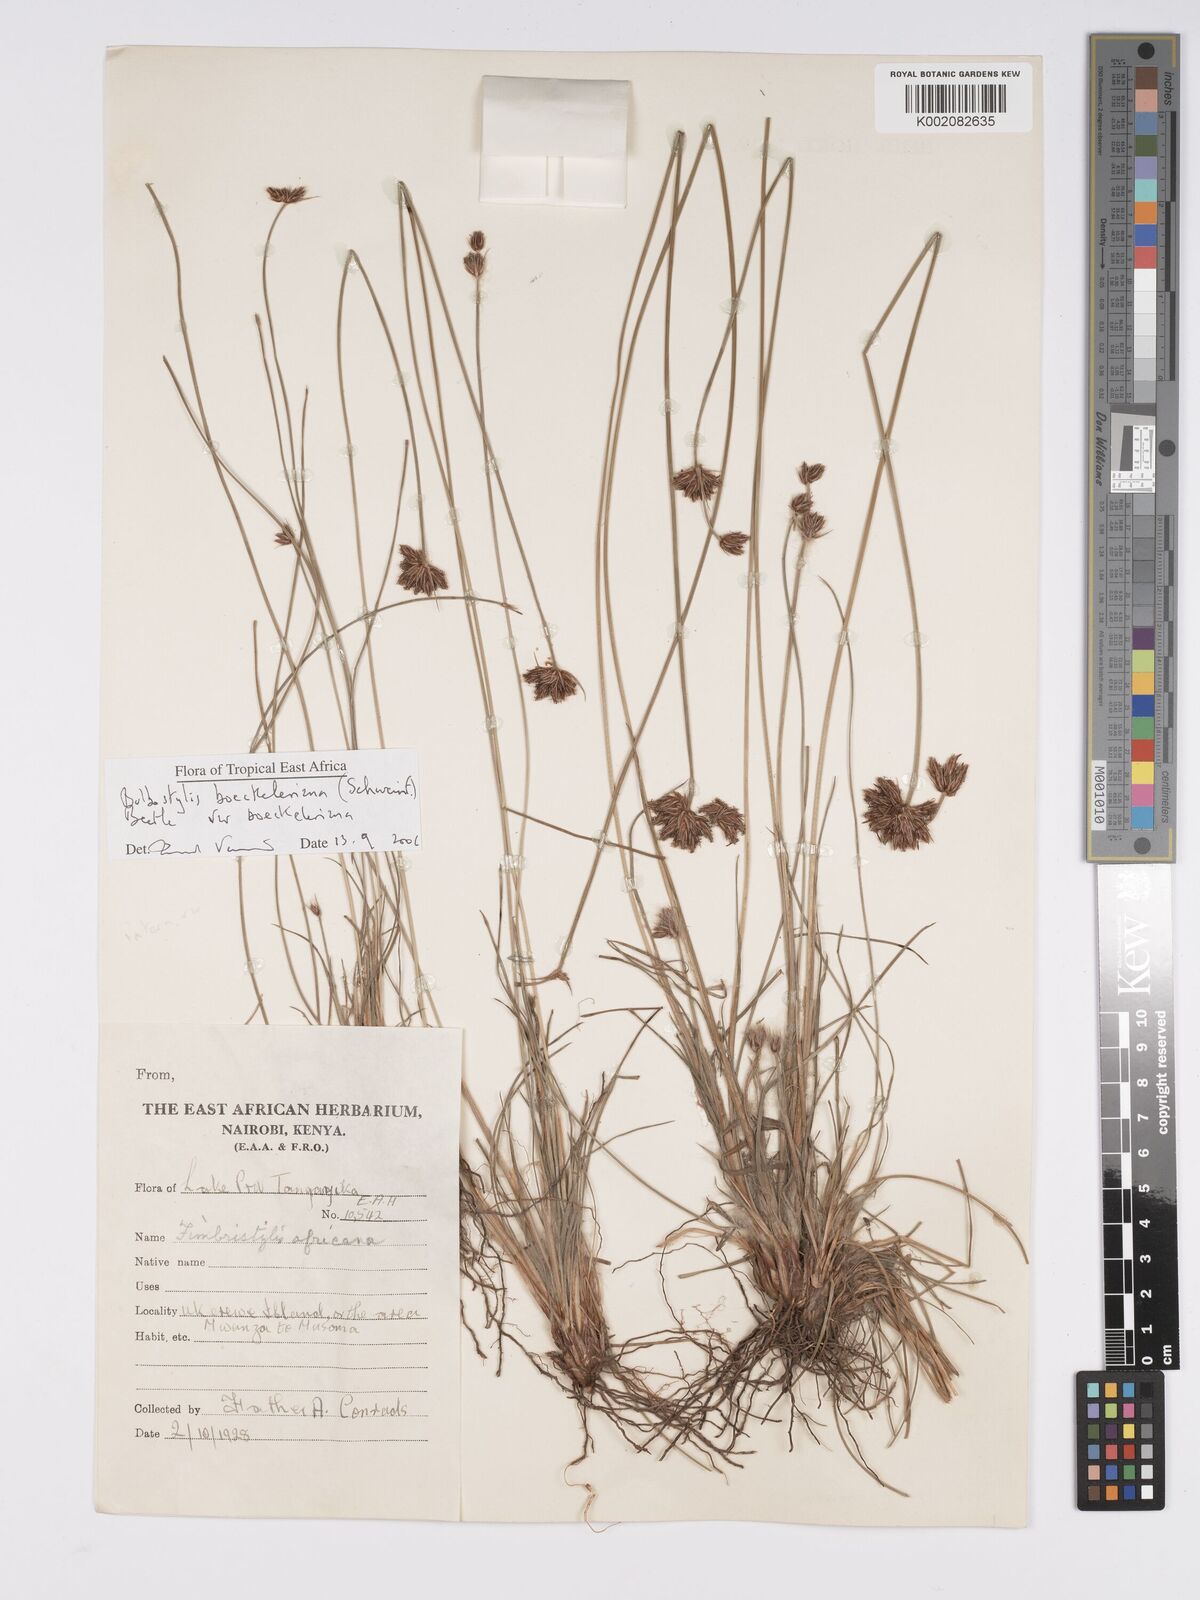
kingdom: Plantae
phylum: Tracheophyta
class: Liliopsida
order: Poales
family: Cyperaceae
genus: Bulbostylis
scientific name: Bulbostylis boeckeleriana
